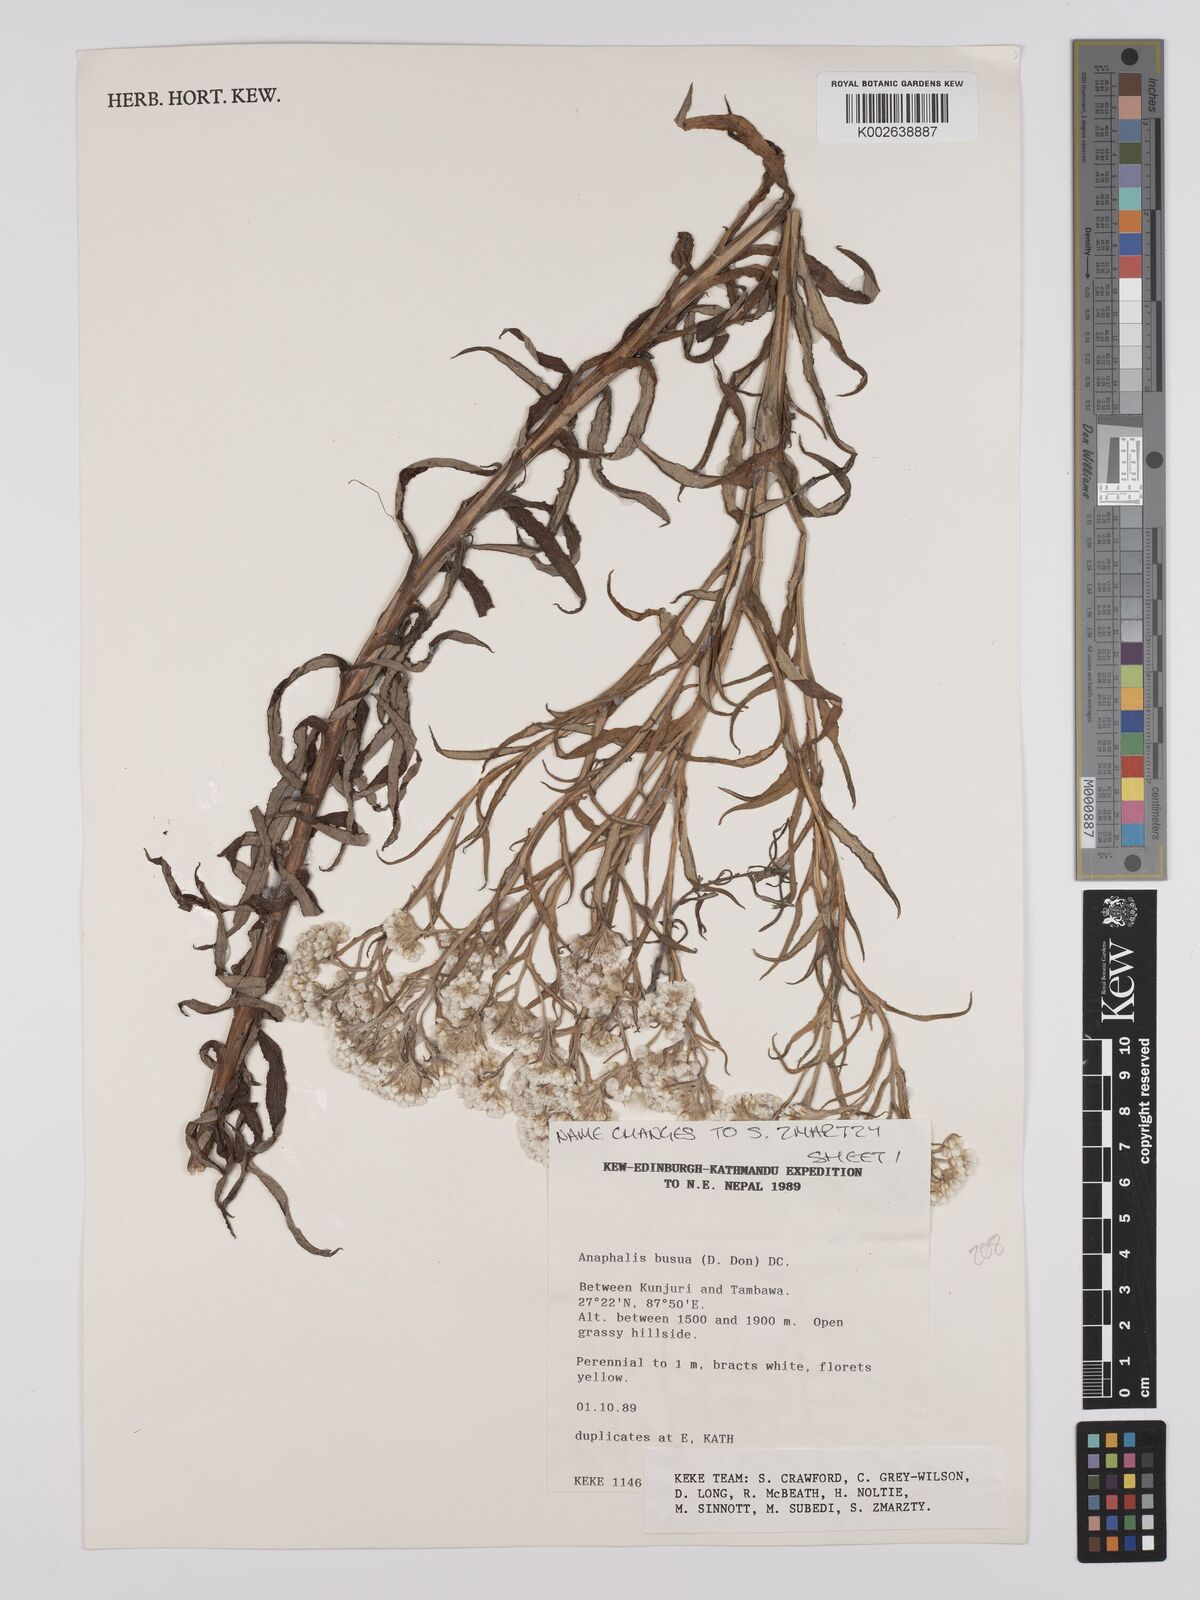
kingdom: Plantae
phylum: Tracheophyta
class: Magnoliopsida
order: Asterales
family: Asteraceae
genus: Anaphalis
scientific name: Anaphalis busua
